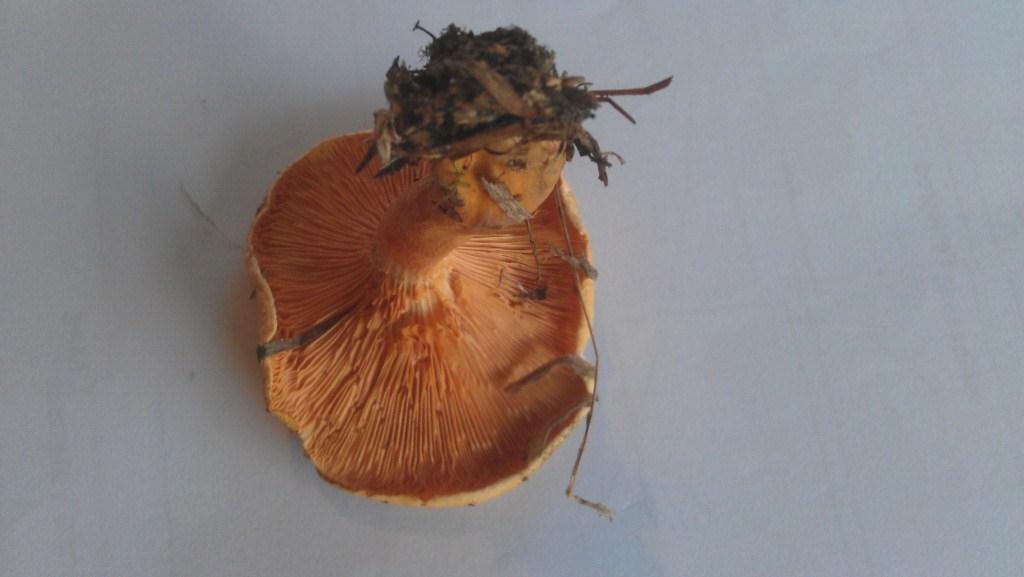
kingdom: Fungi
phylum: Basidiomycota
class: Agaricomycetes
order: Boletales
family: Hygrophoropsidaceae
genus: Hygrophoropsis
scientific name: Hygrophoropsis aurantiaca
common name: almindelig orangekantarel
